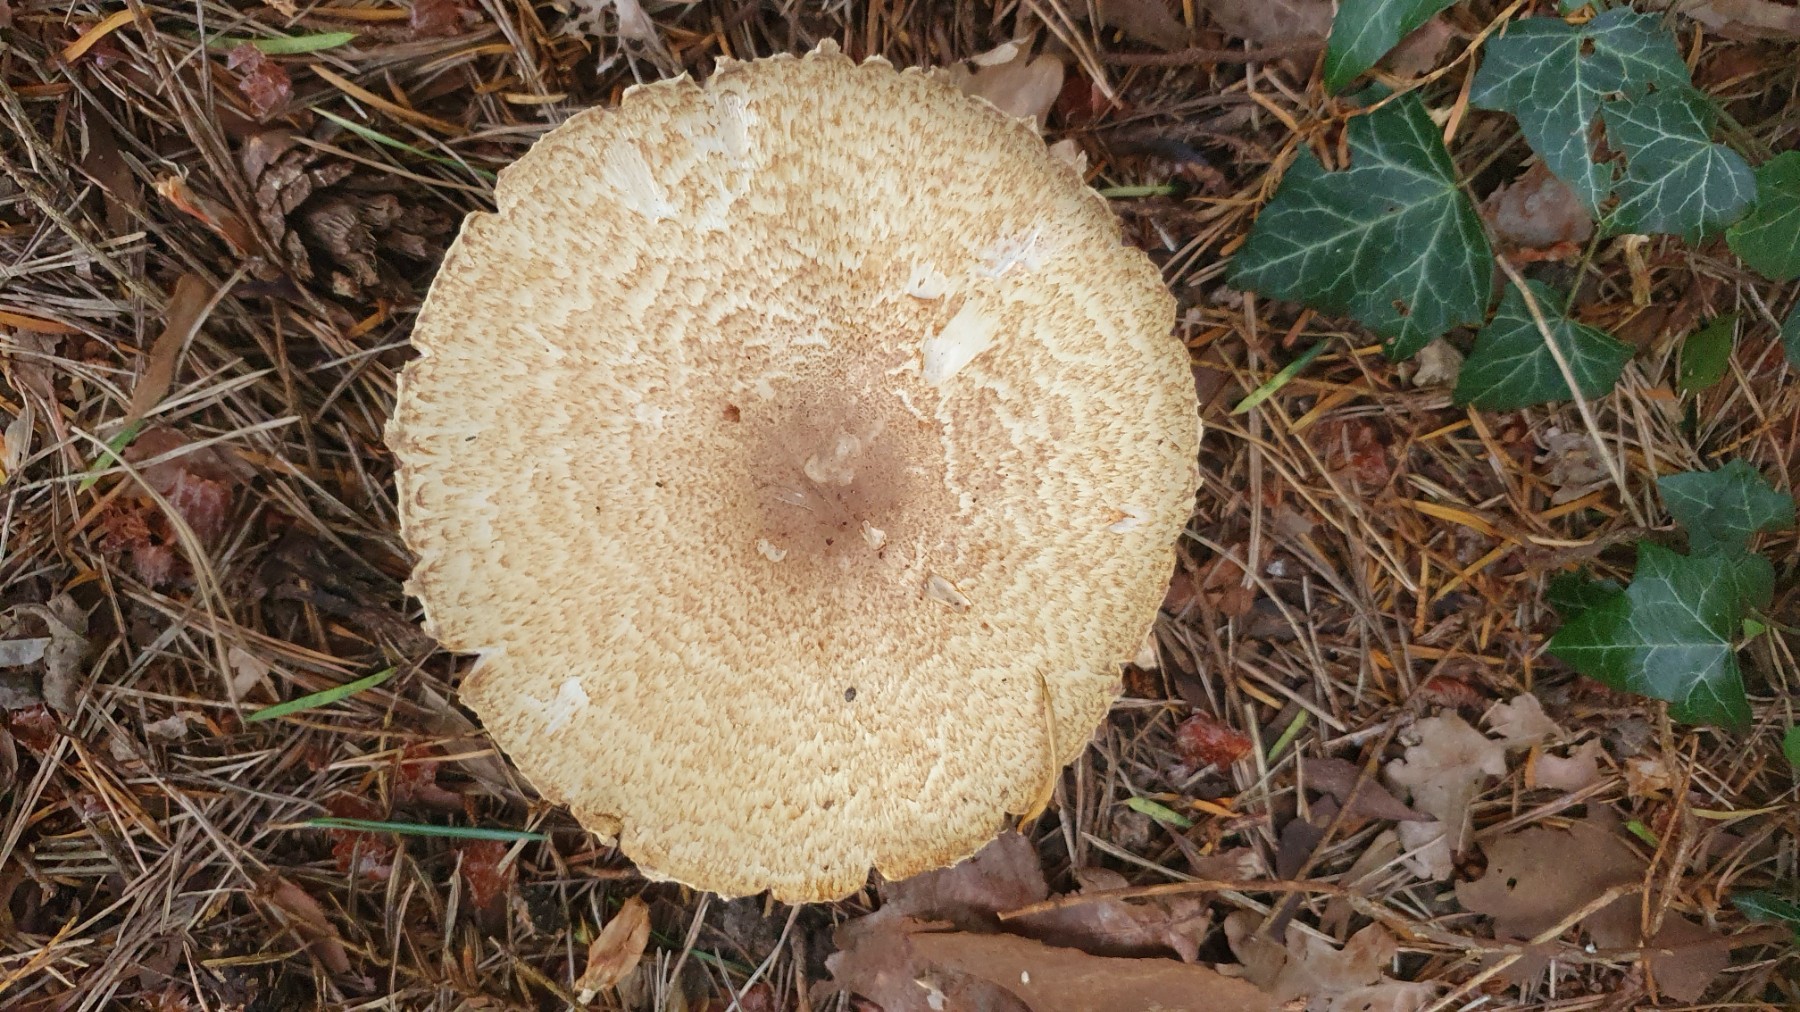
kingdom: Fungi
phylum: Basidiomycota
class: Agaricomycetes
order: Agaricales
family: Agaricaceae
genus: Agaricus
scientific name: Agaricus augustus
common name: prægtig champignon
